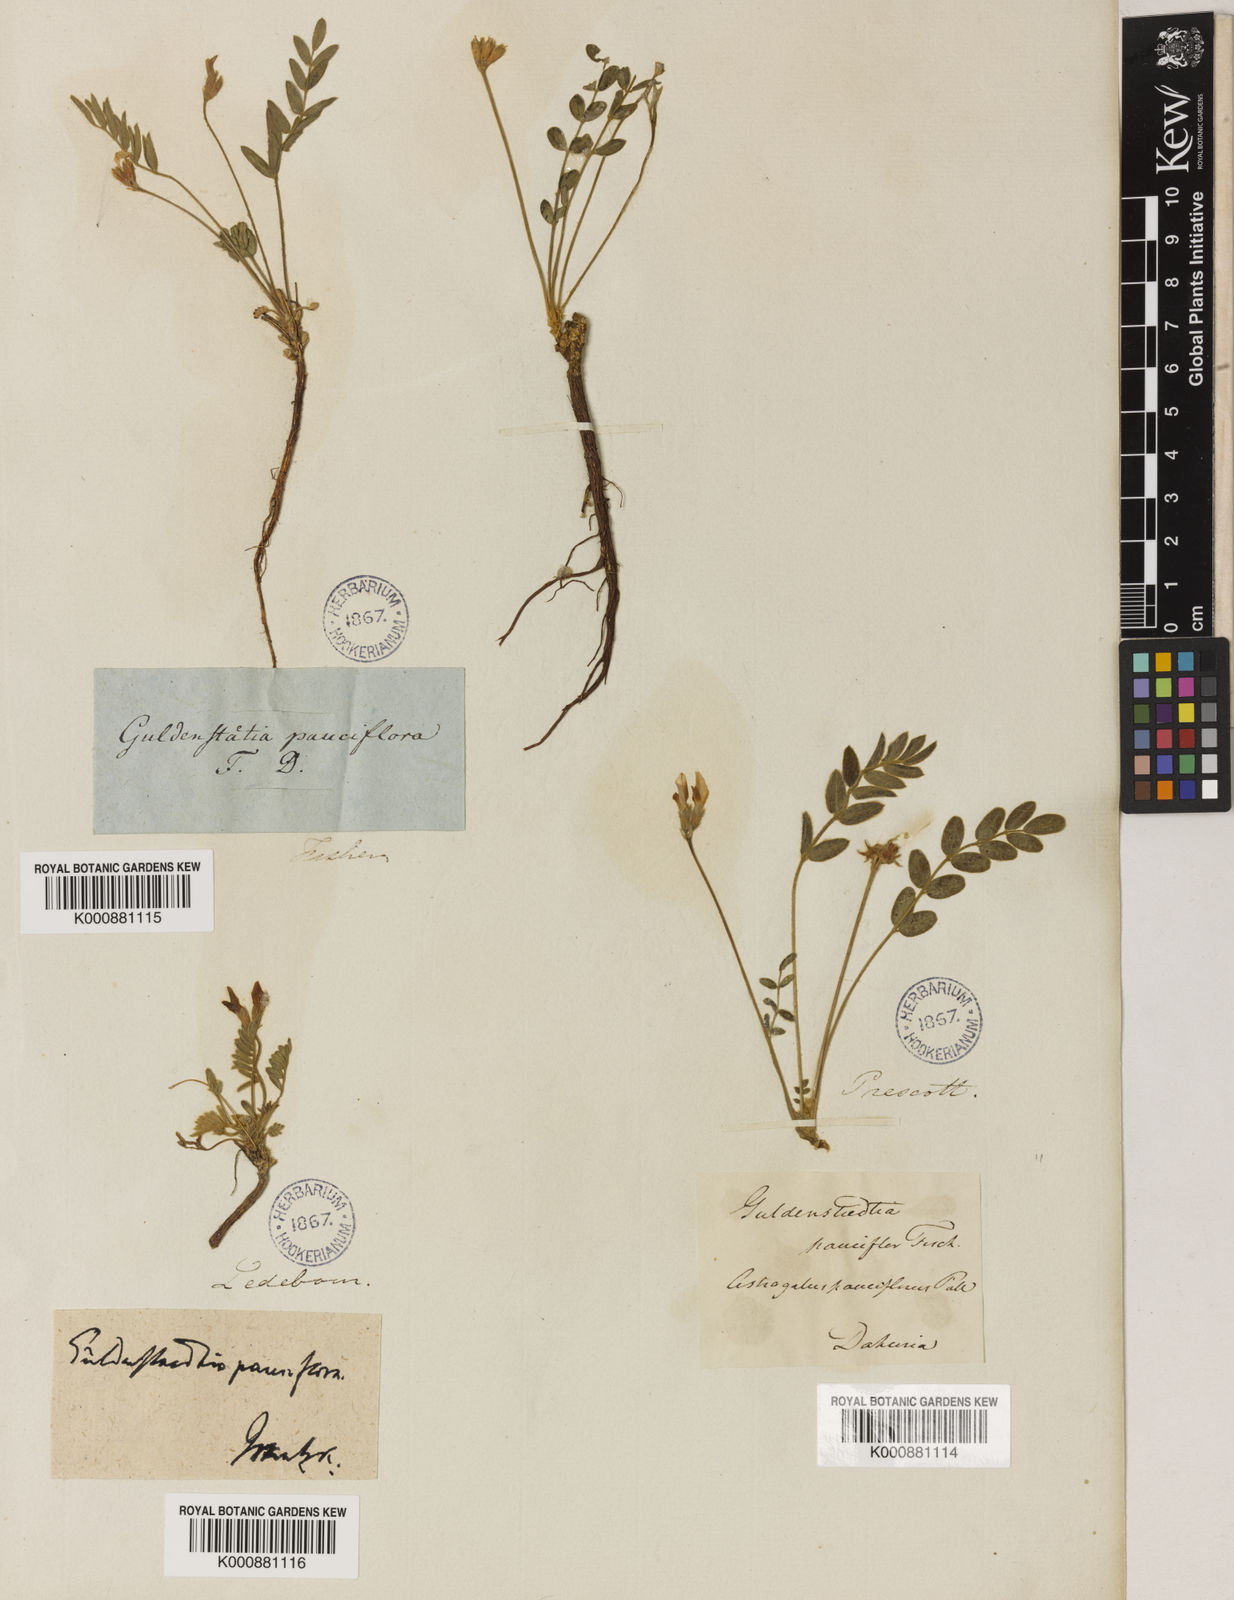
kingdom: Plantae
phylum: Tracheophyta
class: Magnoliopsida
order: Fabales
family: Fabaceae
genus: Gueldenstaedtia
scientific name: Gueldenstaedtia verna
